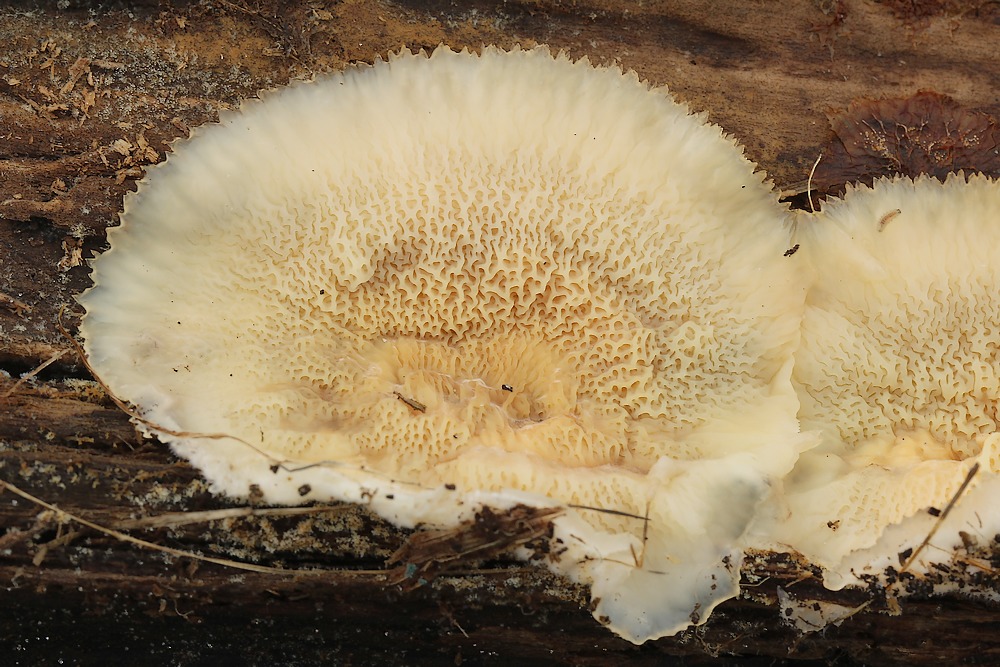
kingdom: Fungi
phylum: Basidiomycota
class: Agaricomycetes
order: Polyporales
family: Meruliaceae
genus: Phlebia
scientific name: Phlebia tremellosa
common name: bævrende åresvamp
